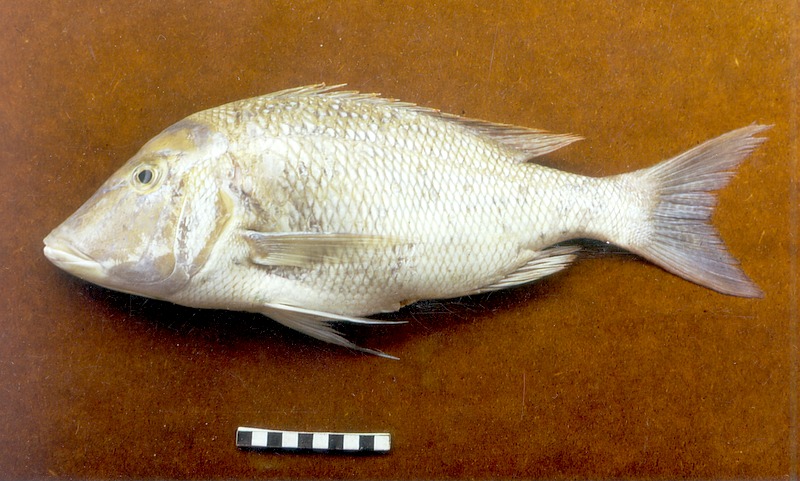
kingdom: Animalia
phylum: Chordata
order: Perciformes
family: Lethrinidae
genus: Lethrinus
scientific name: Lethrinus nebulosus
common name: Spangled emperor
